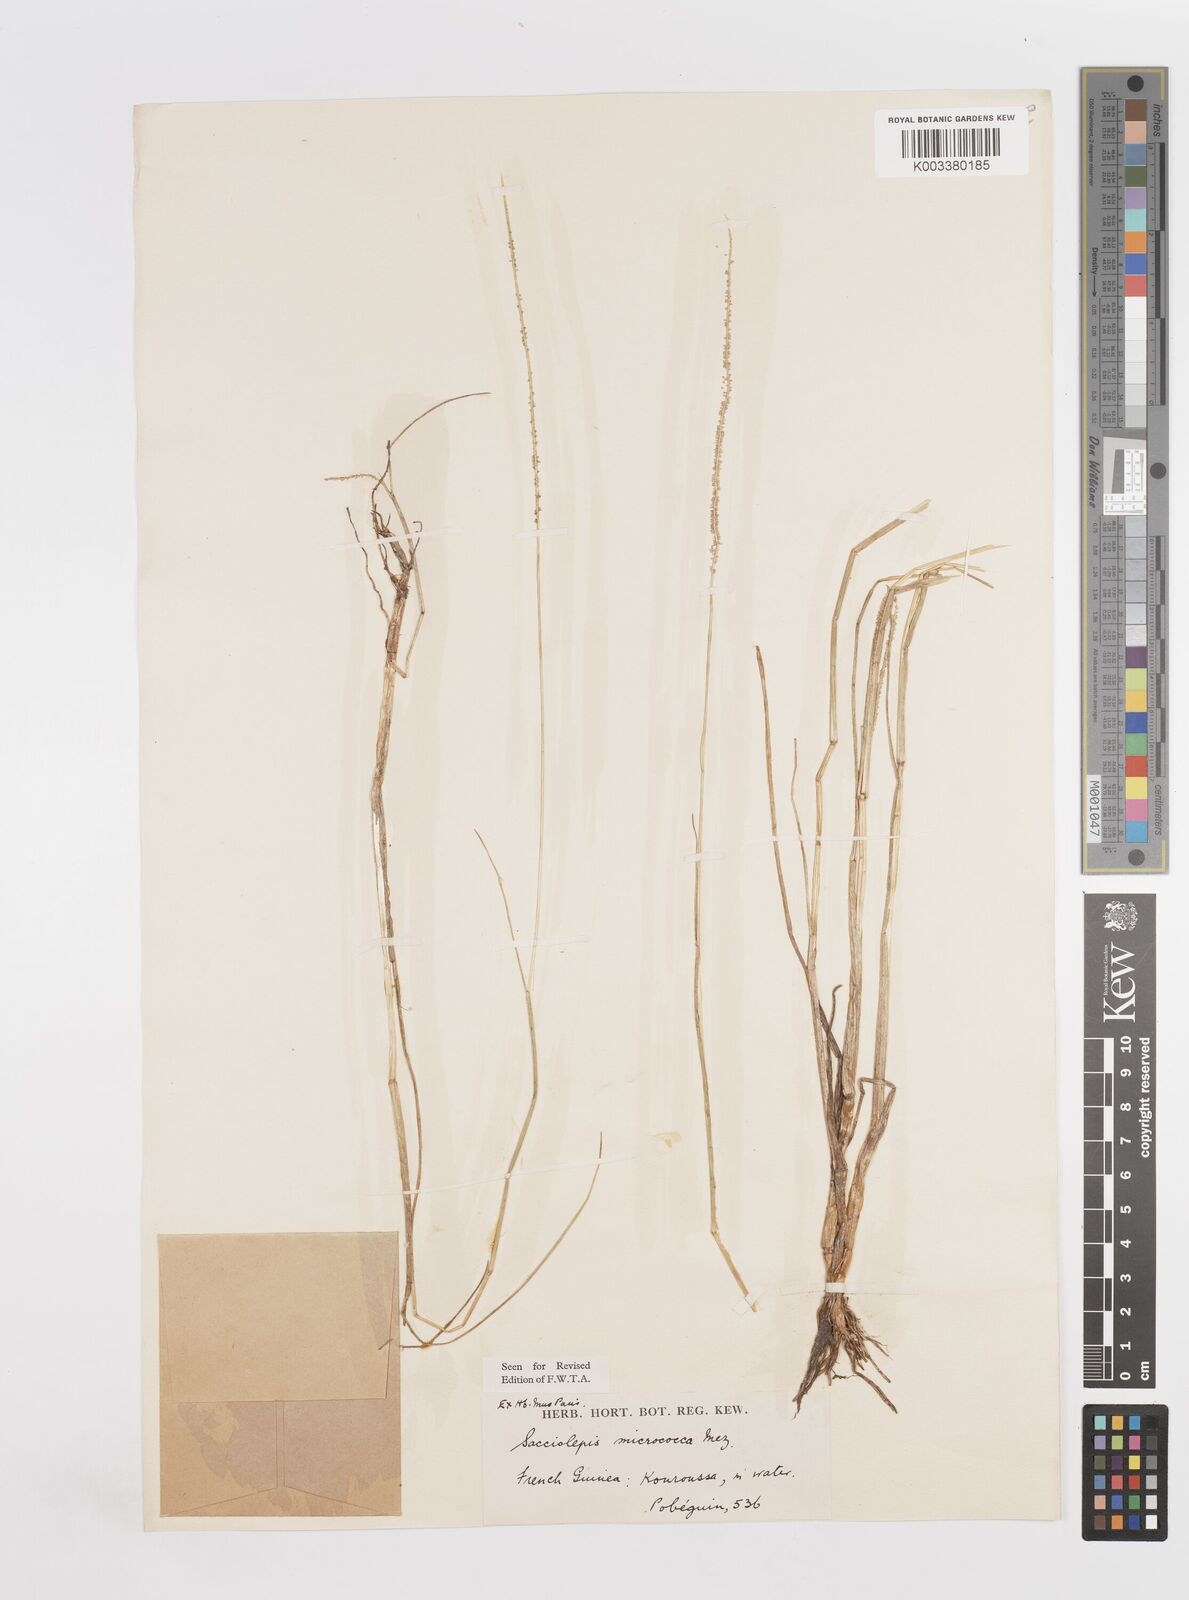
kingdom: Plantae
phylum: Tracheophyta
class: Liliopsida
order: Poales
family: Poaceae
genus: Sacciolepis
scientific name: Sacciolepis micrococca
